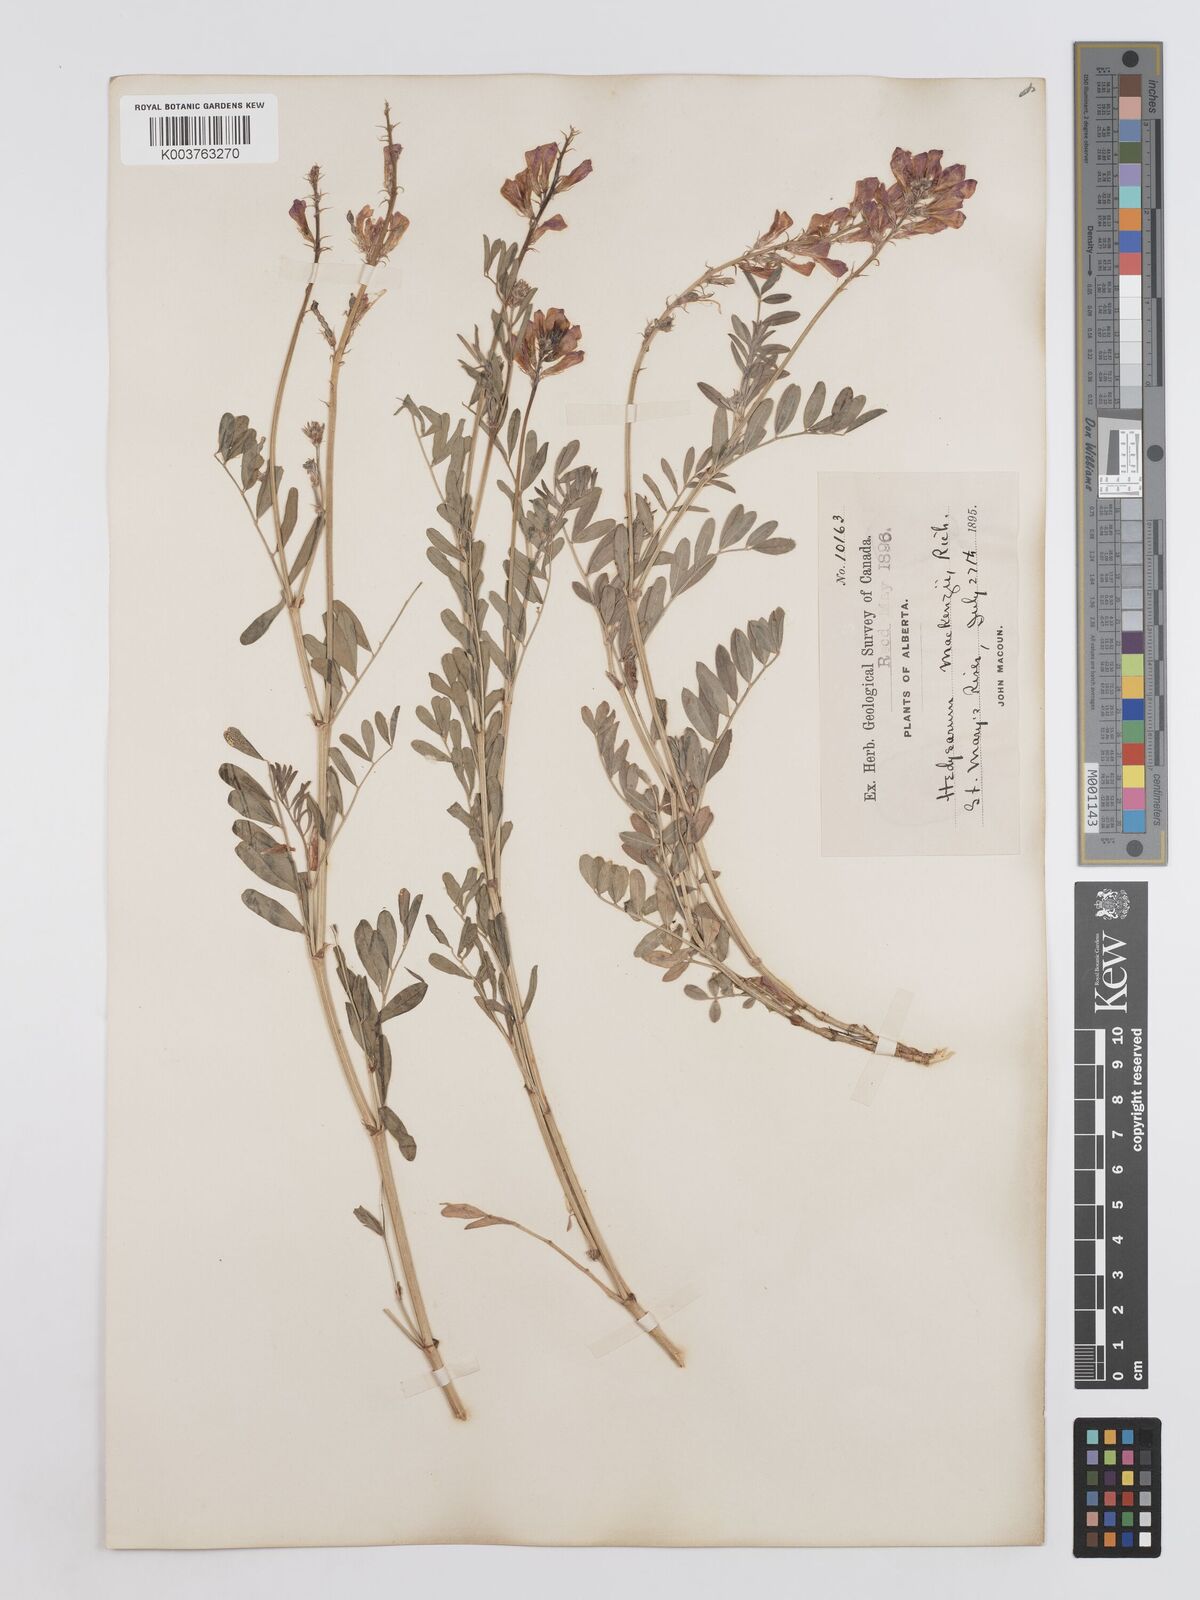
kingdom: Plantae
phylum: Tracheophyta
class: Magnoliopsida
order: Fabales
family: Fabaceae
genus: Hedysarum
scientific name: Hedysarum boreale
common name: Northern sweet-vetch
